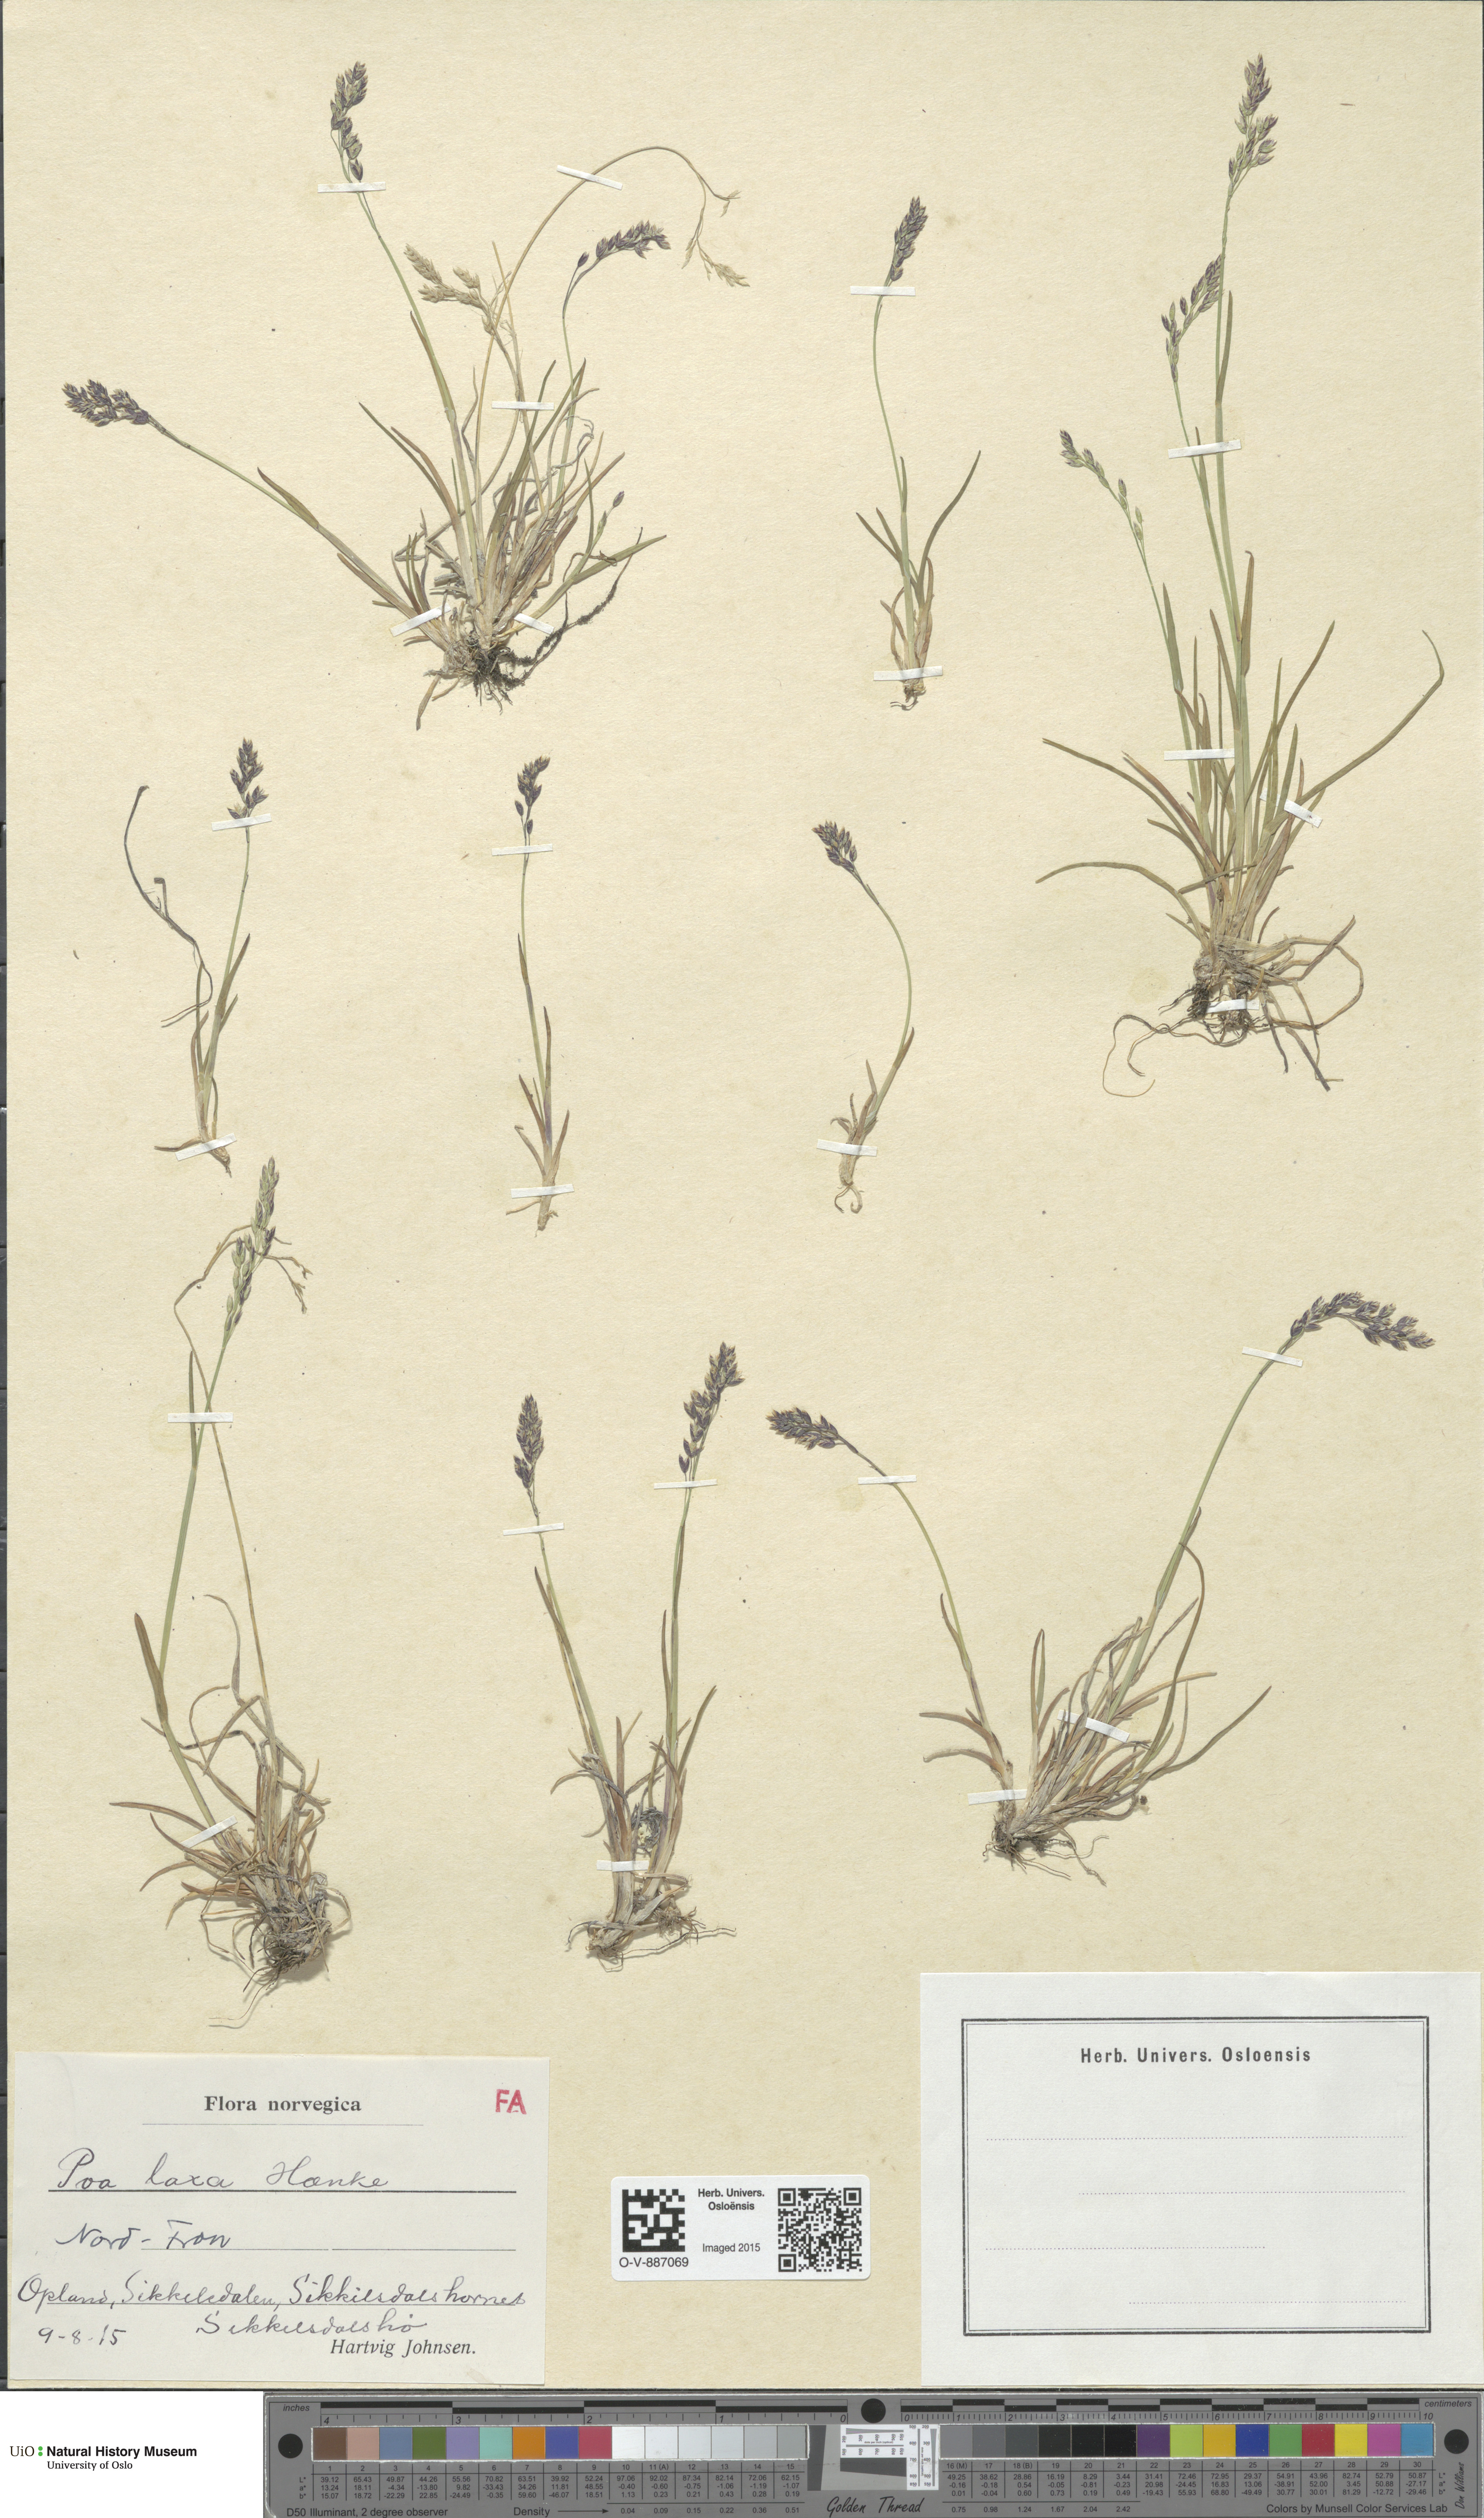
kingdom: Plantae
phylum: Tracheophyta
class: Liliopsida
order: Poales
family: Poaceae
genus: Poa
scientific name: Poa flexuosa
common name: Wavy meadow-grass
